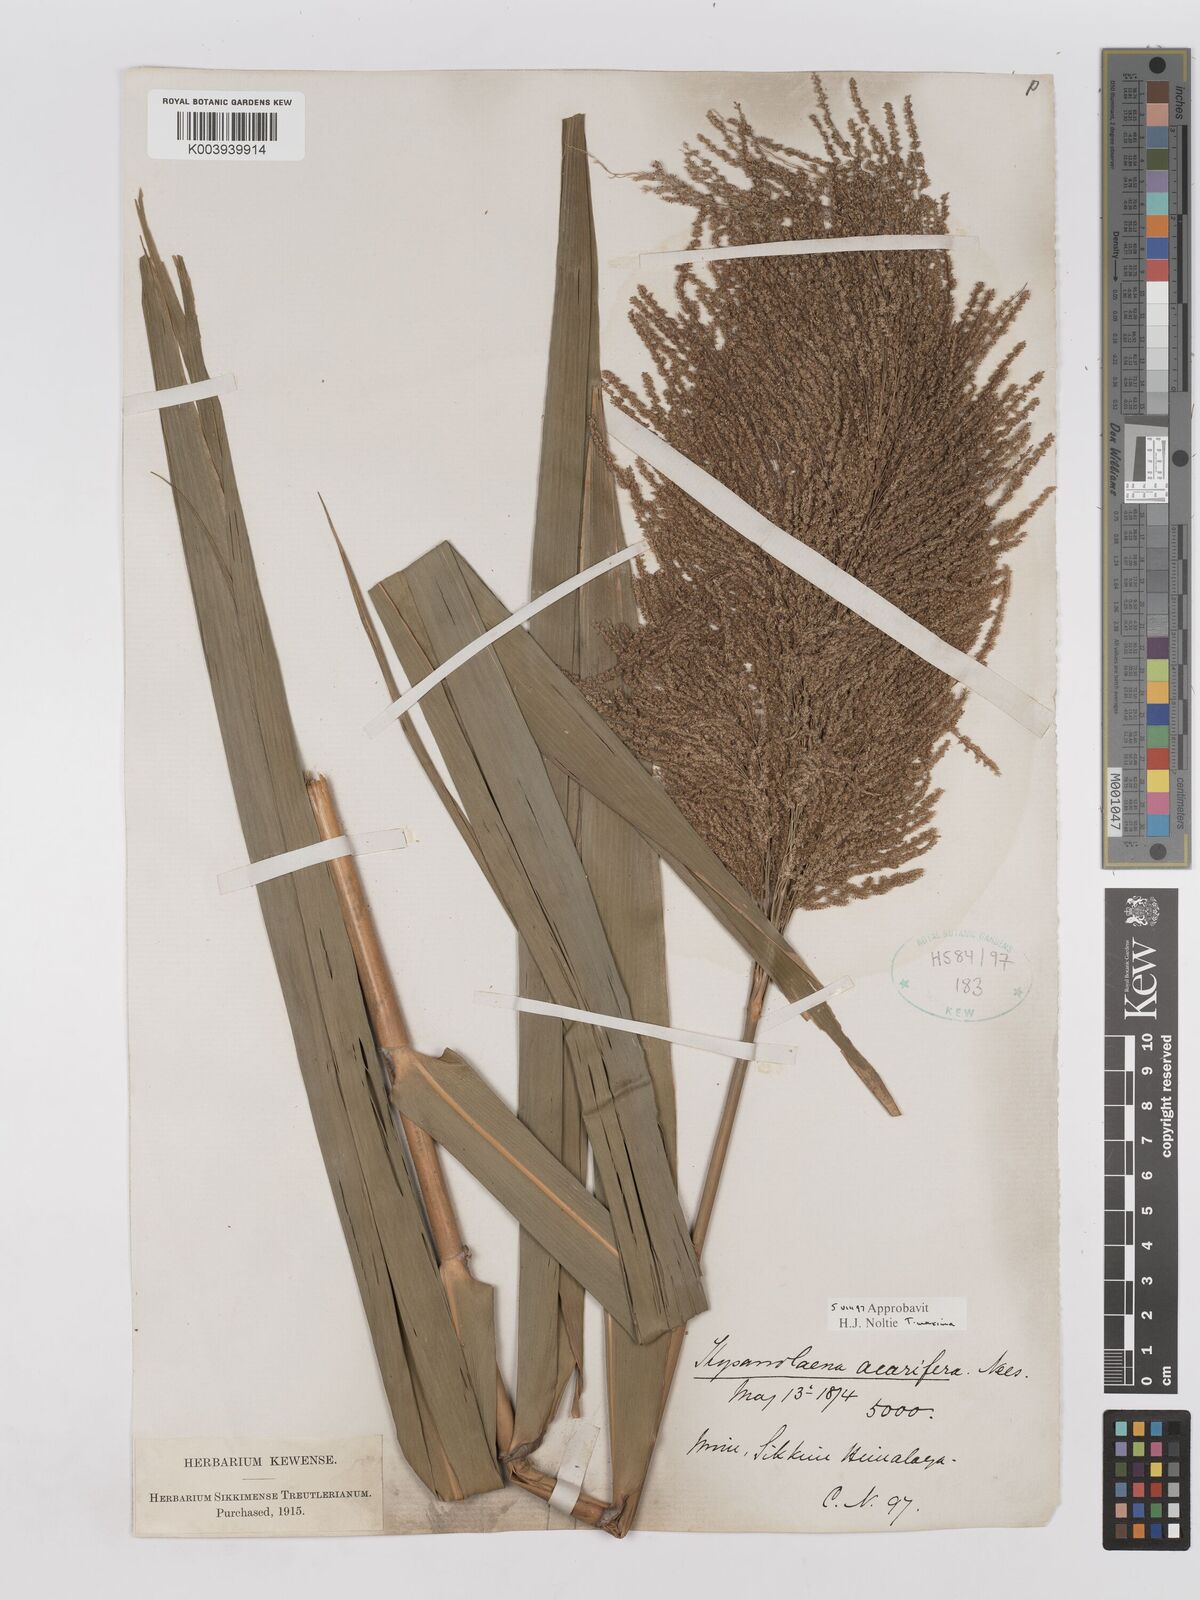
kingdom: Plantae
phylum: Tracheophyta
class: Liliopsida
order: Poales
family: Poaceae
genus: Thysanolaena
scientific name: Thysanolaena latifolia
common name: Tiger grass
